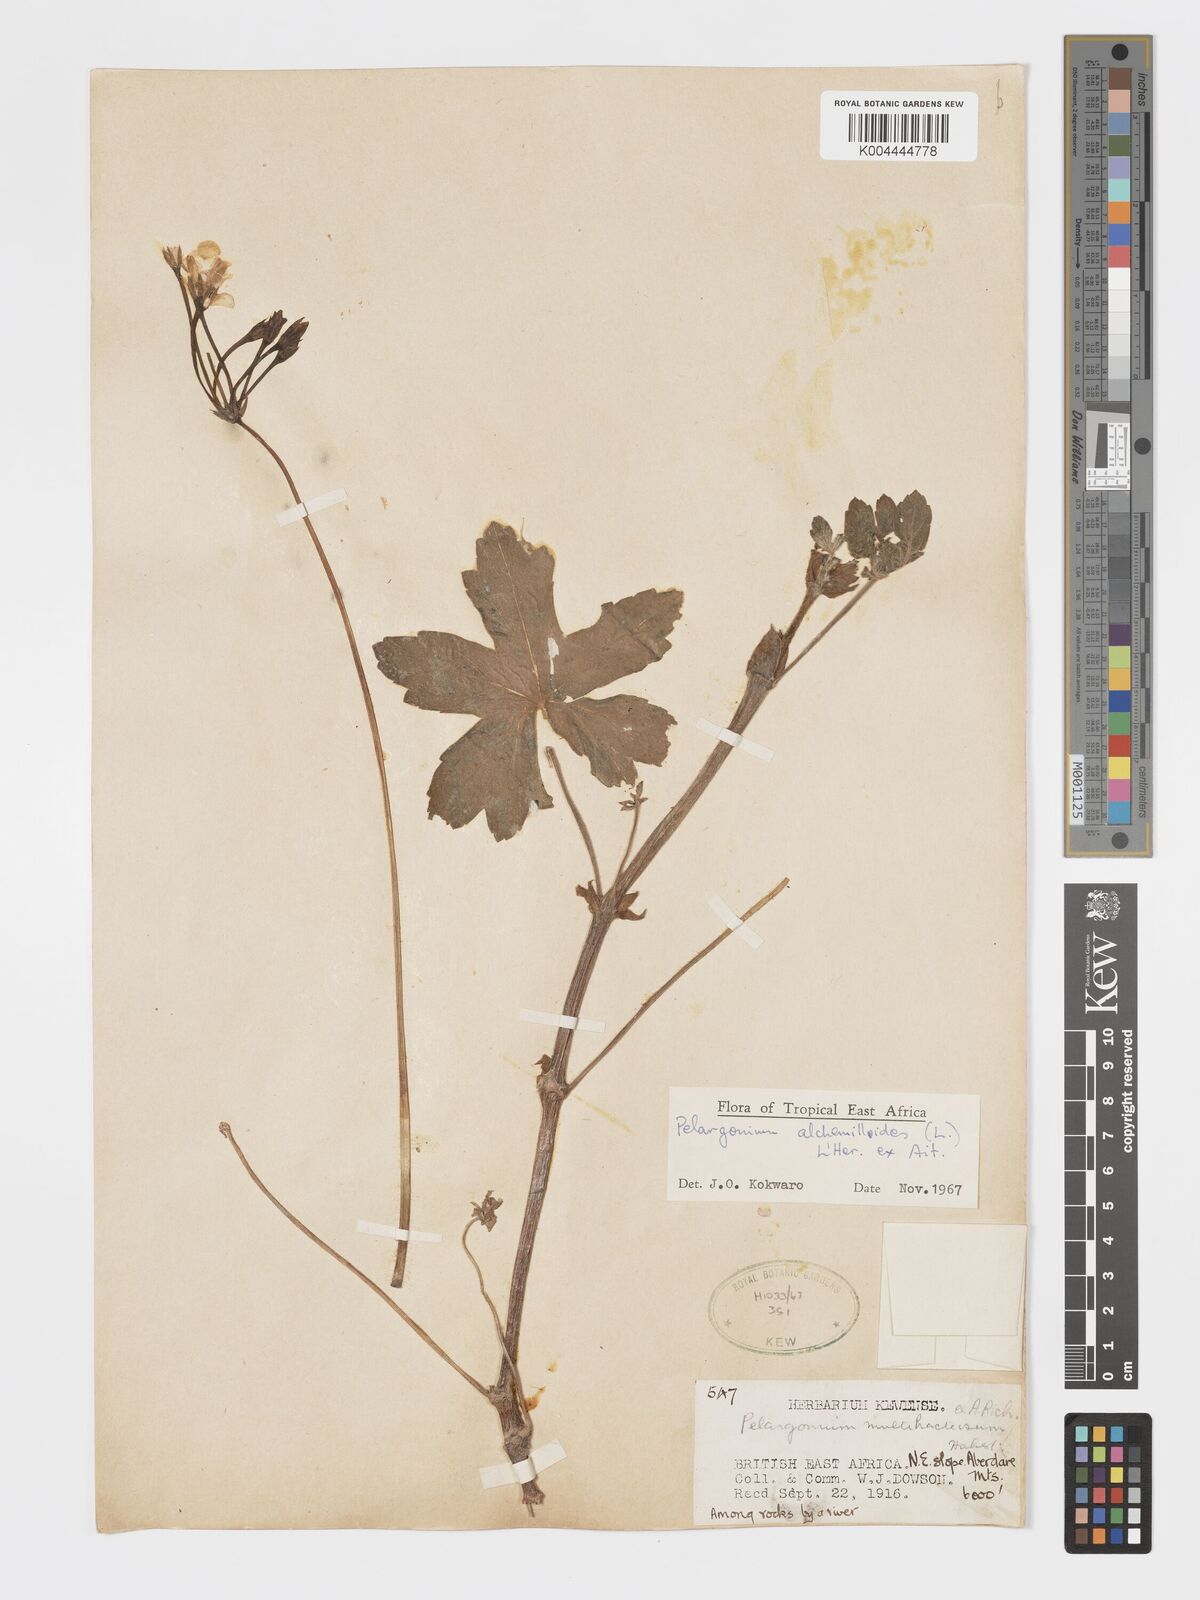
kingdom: Plantae
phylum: Tracheophyta
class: Magnoliopsida
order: Geraniales
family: Geraniaceae
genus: Pelargonium
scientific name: Pelargonium alchemilloides
